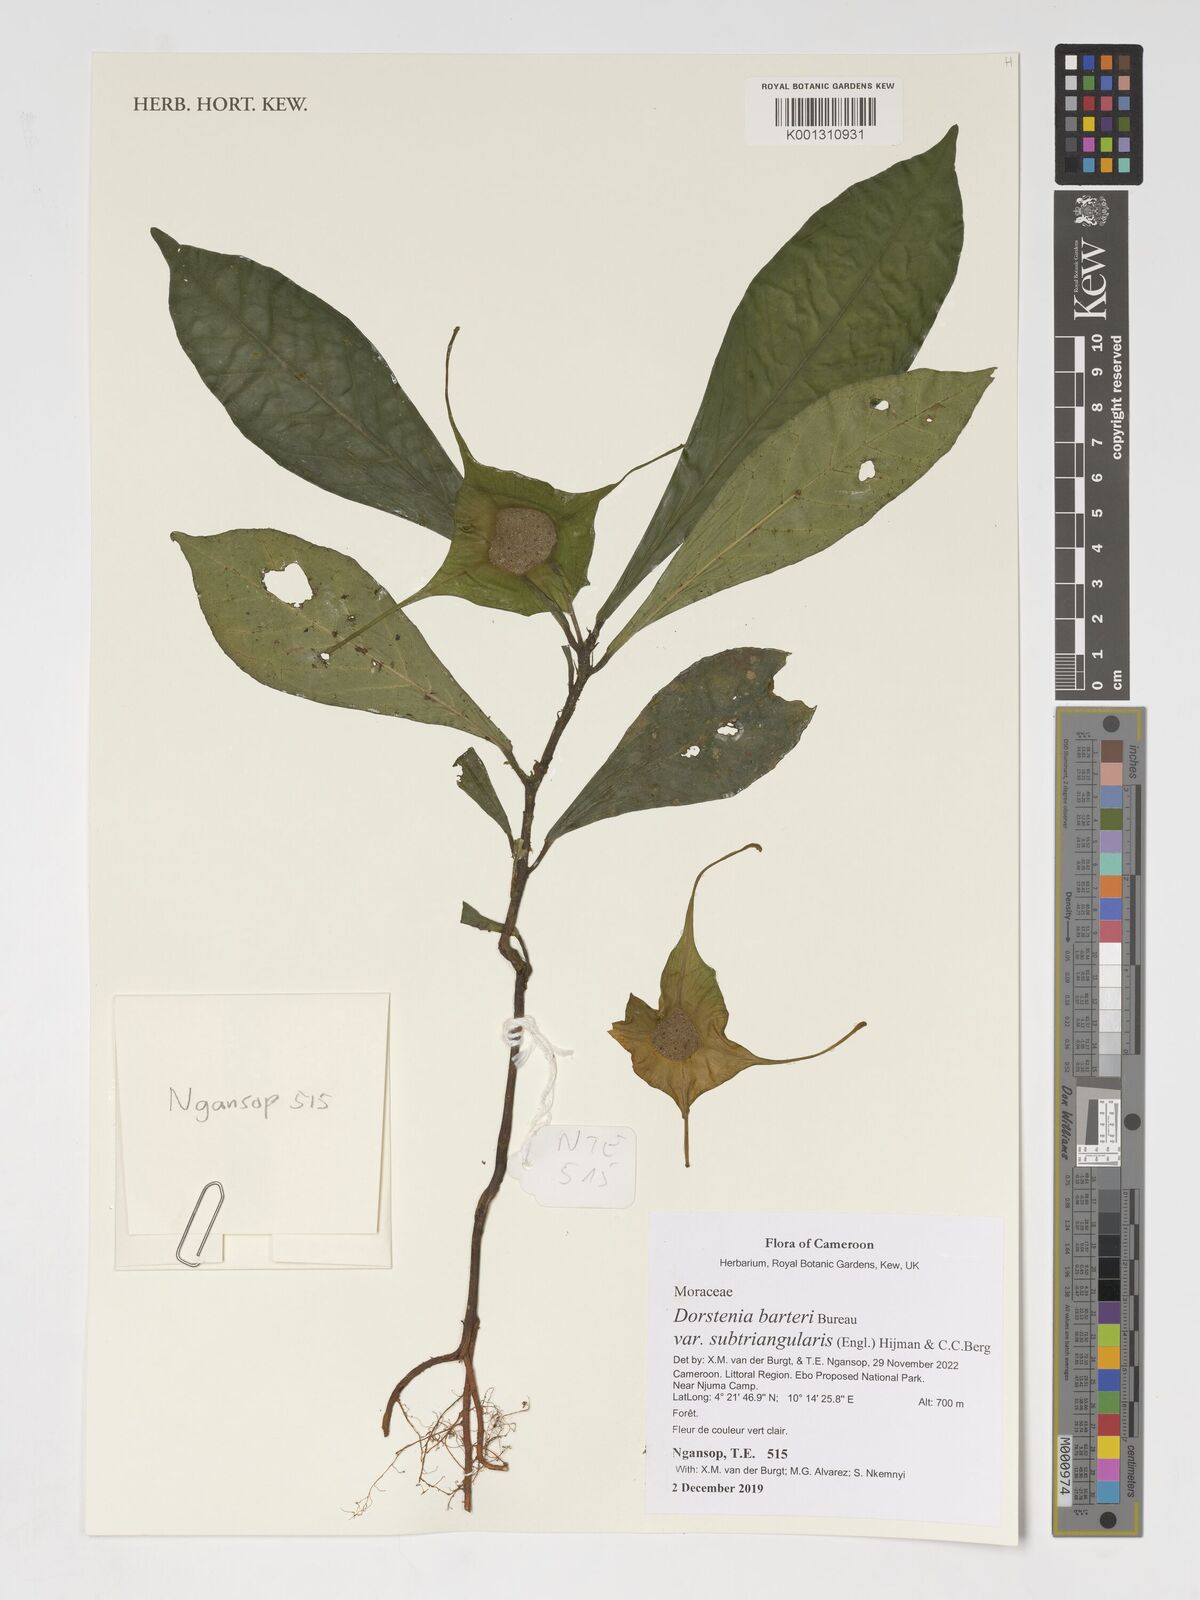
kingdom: Plantae
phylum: Tracheophyta
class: Magnoliopsida
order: Rosales
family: Moraceae
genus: Dorstenia
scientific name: Dorstenia barteri
